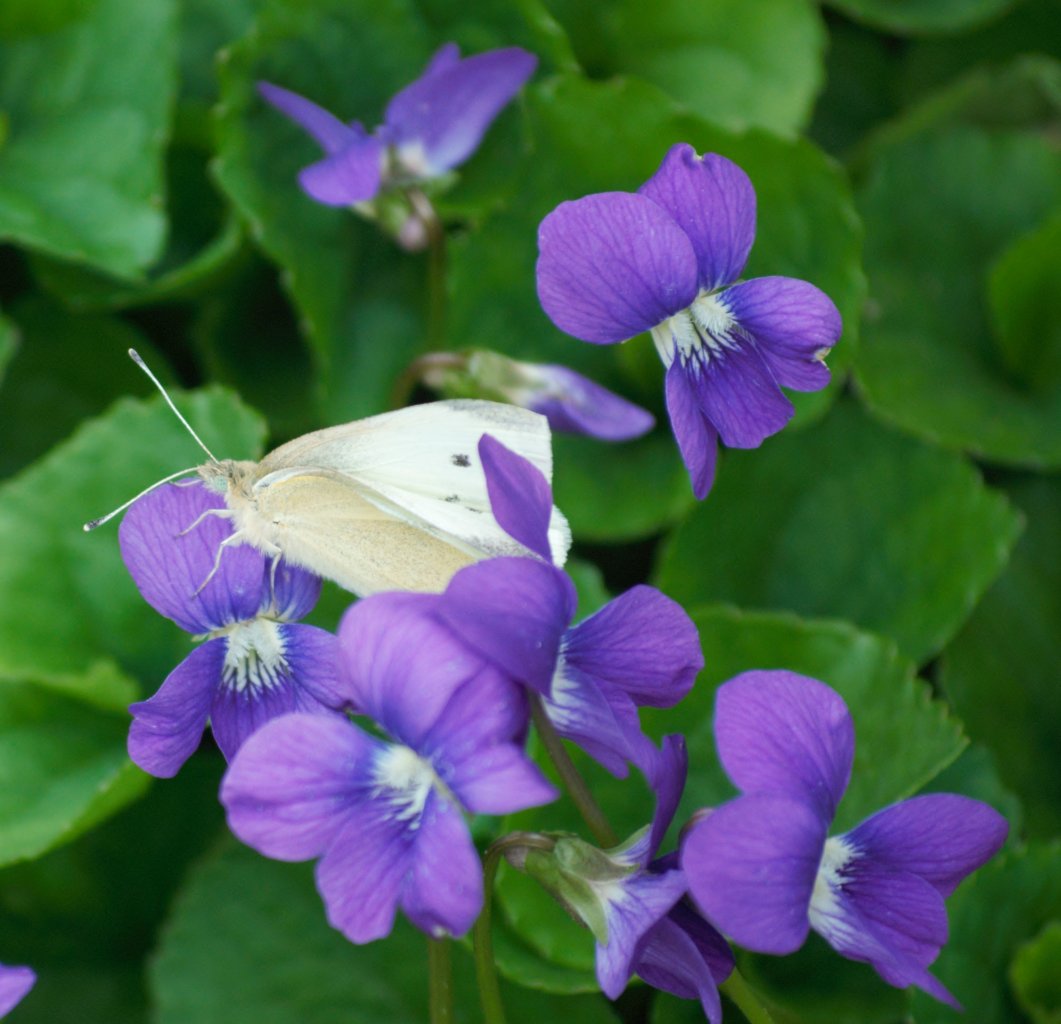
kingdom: Animalia
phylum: Arthropoda
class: Insecta
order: Lepidoptera
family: Pieridae
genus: Pieris
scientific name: Pieris rapae
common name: Cabbage White
